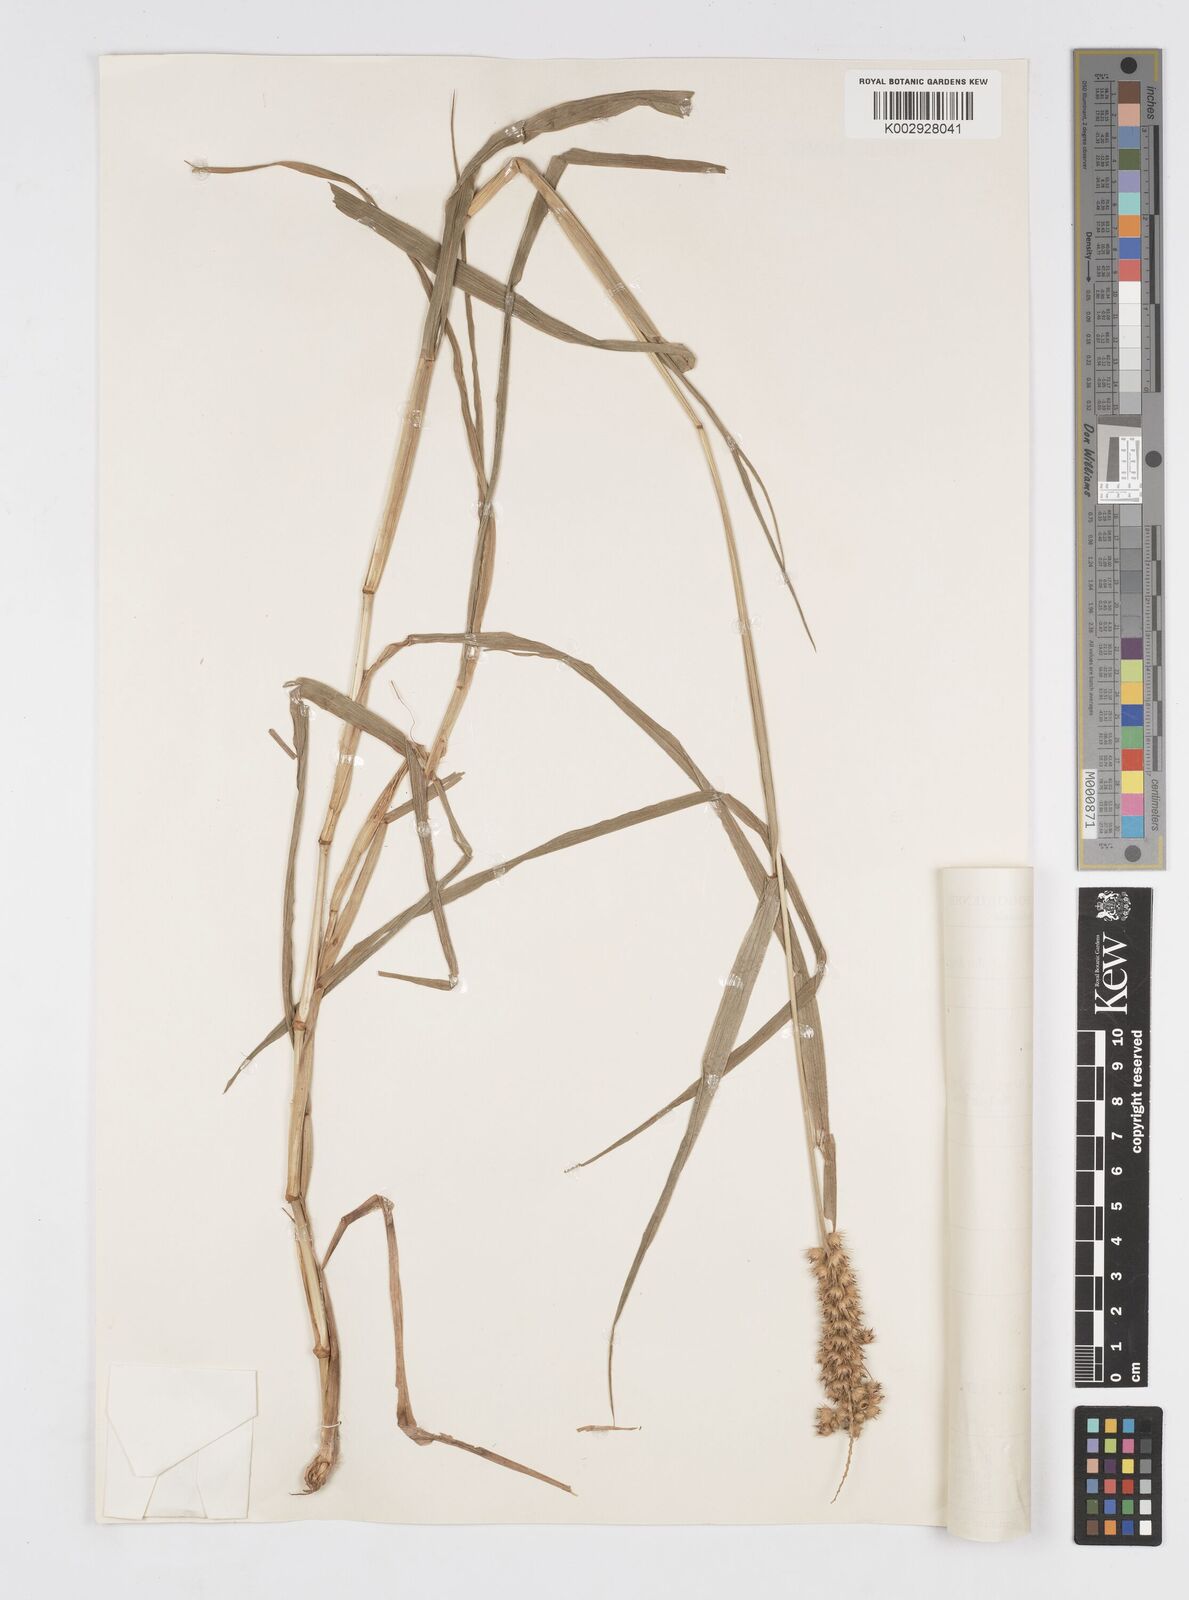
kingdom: Plantae
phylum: Tracheophyta
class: Liliopsida
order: Poales
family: Poaceae
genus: Cenchrus
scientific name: Cenchrus brownii
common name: Slim-bristle sandbur
